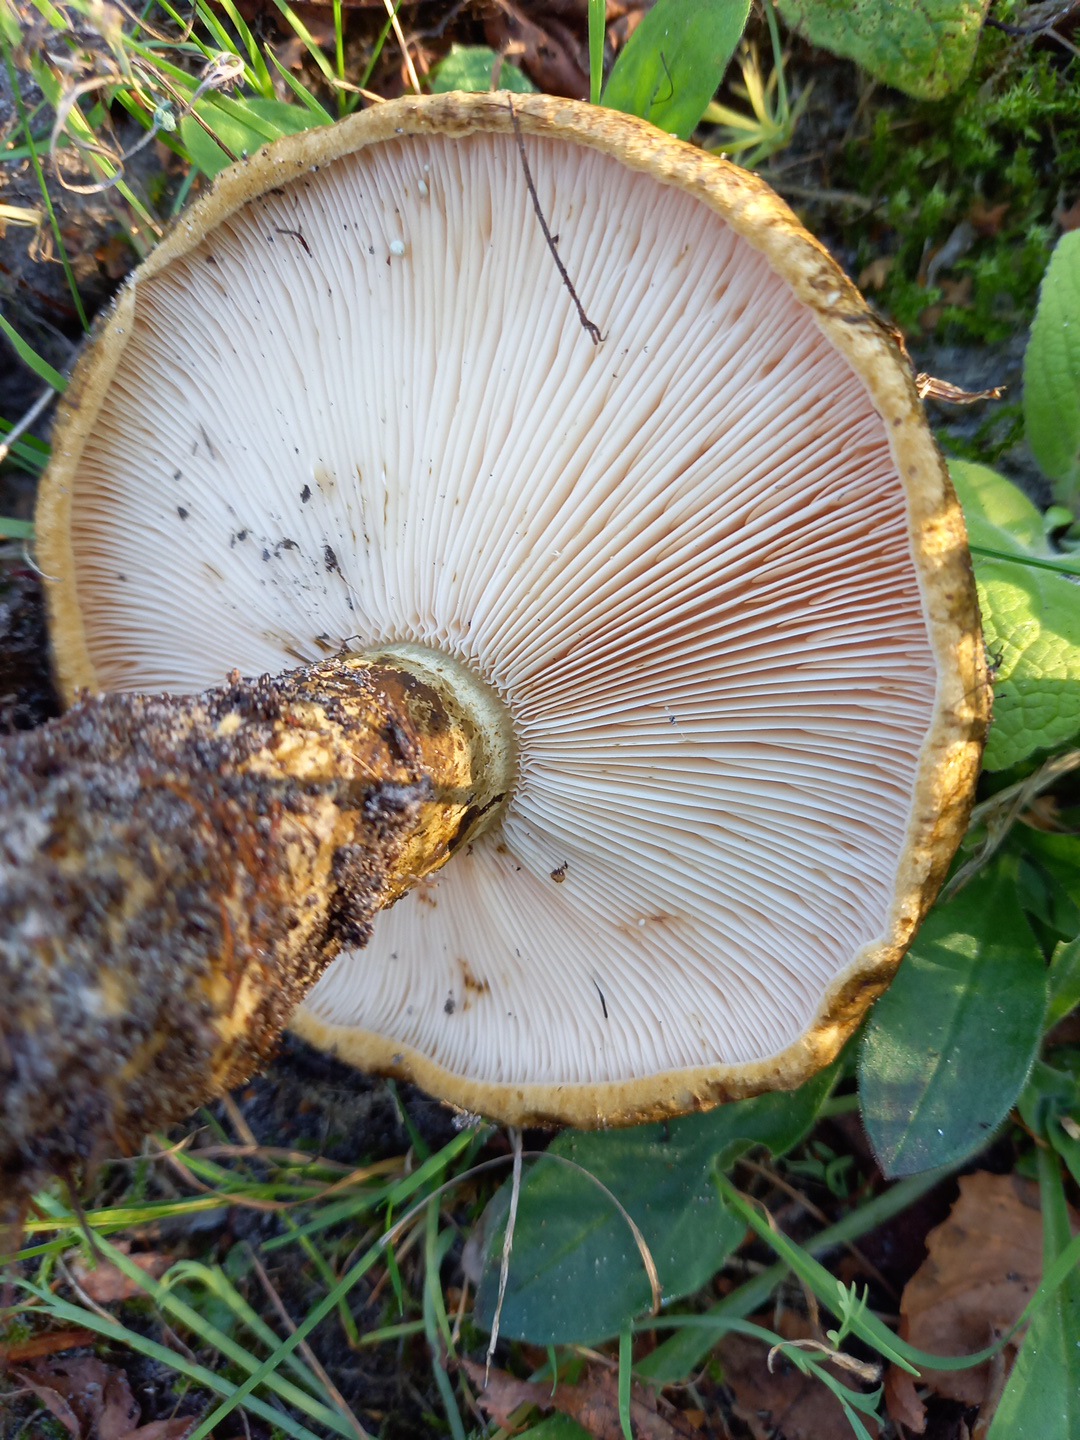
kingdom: Fungi
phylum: Basidiomycota
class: Agaricomycetes
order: Russulales
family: Russulaceae
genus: Lactarius
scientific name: Lactarius necator
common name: manddraber-mælkehat
